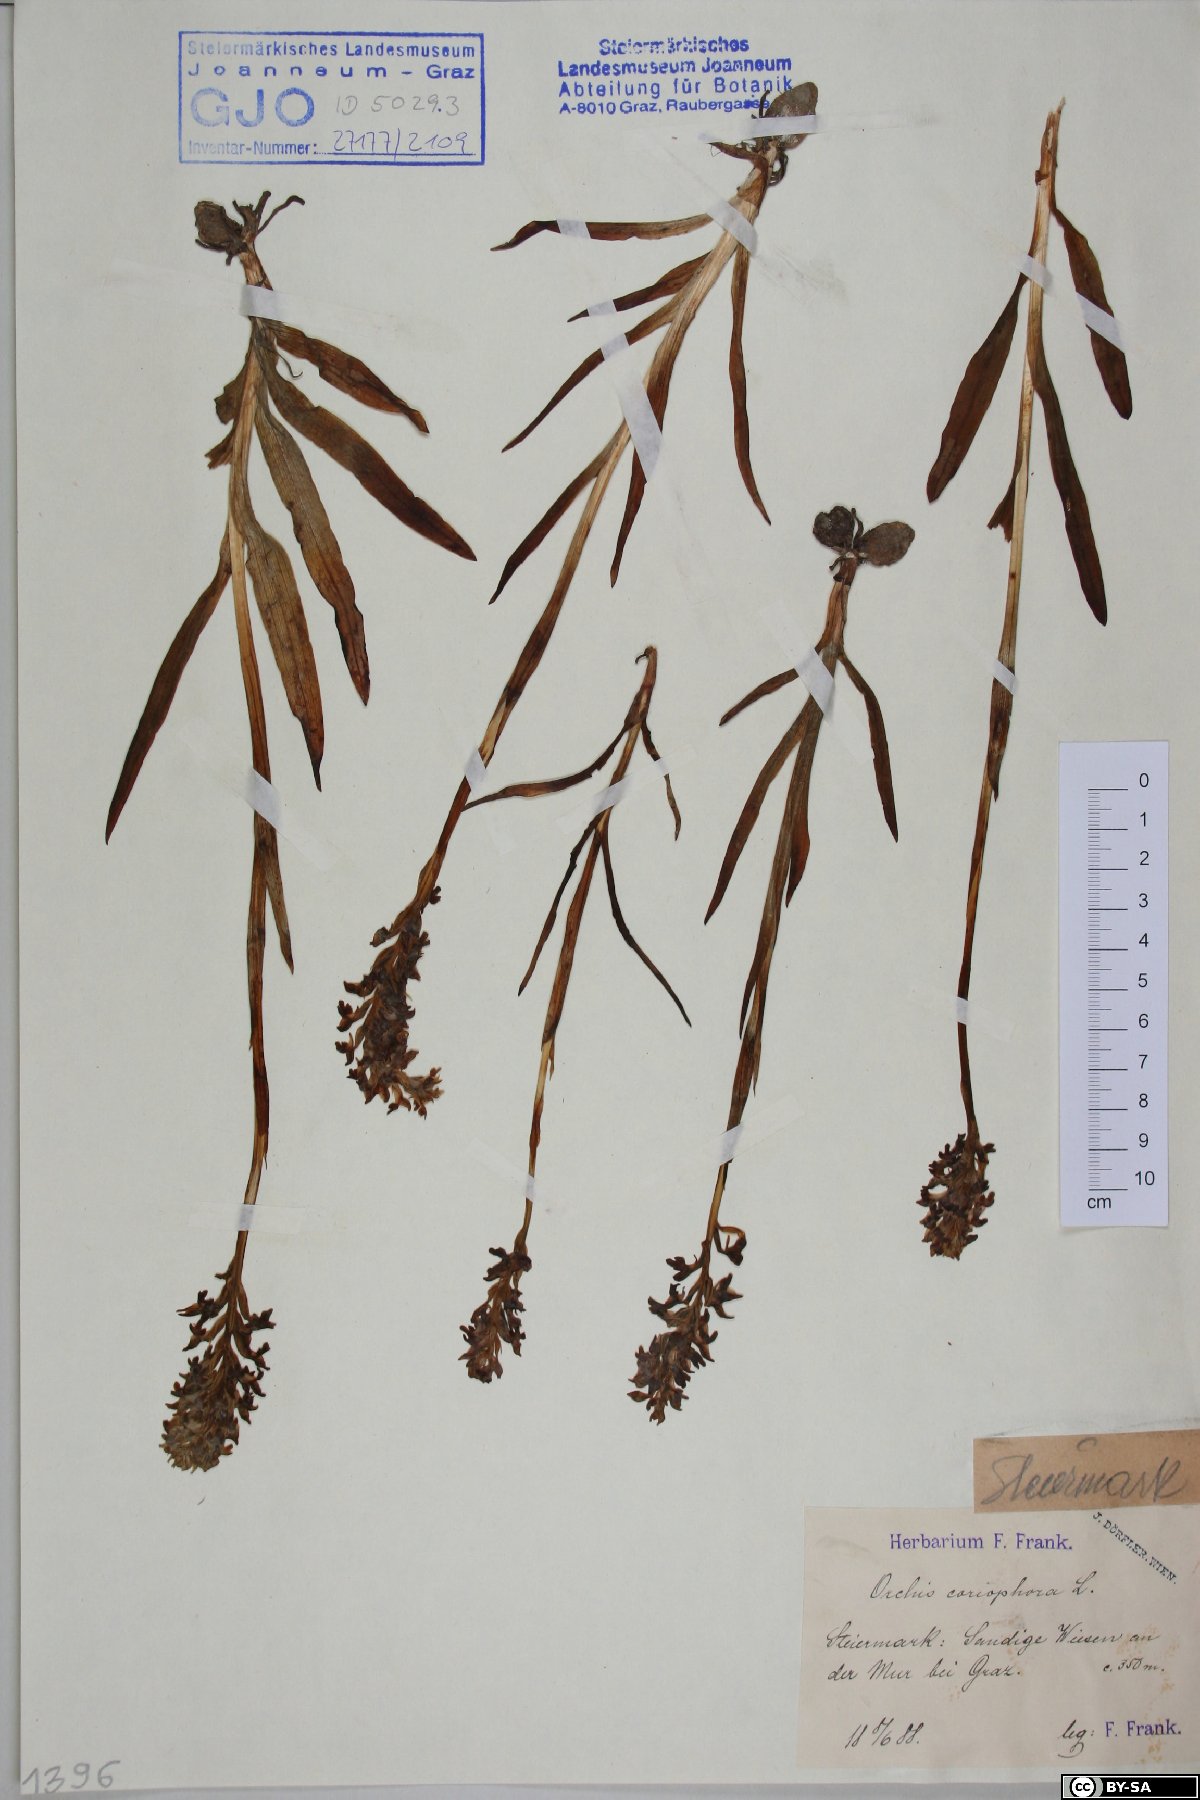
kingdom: Plantae
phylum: Tracheophyta
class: Liliopsida
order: Asparagales
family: Orchidaceae
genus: Anacamptis
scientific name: Anacamptis coriophora
